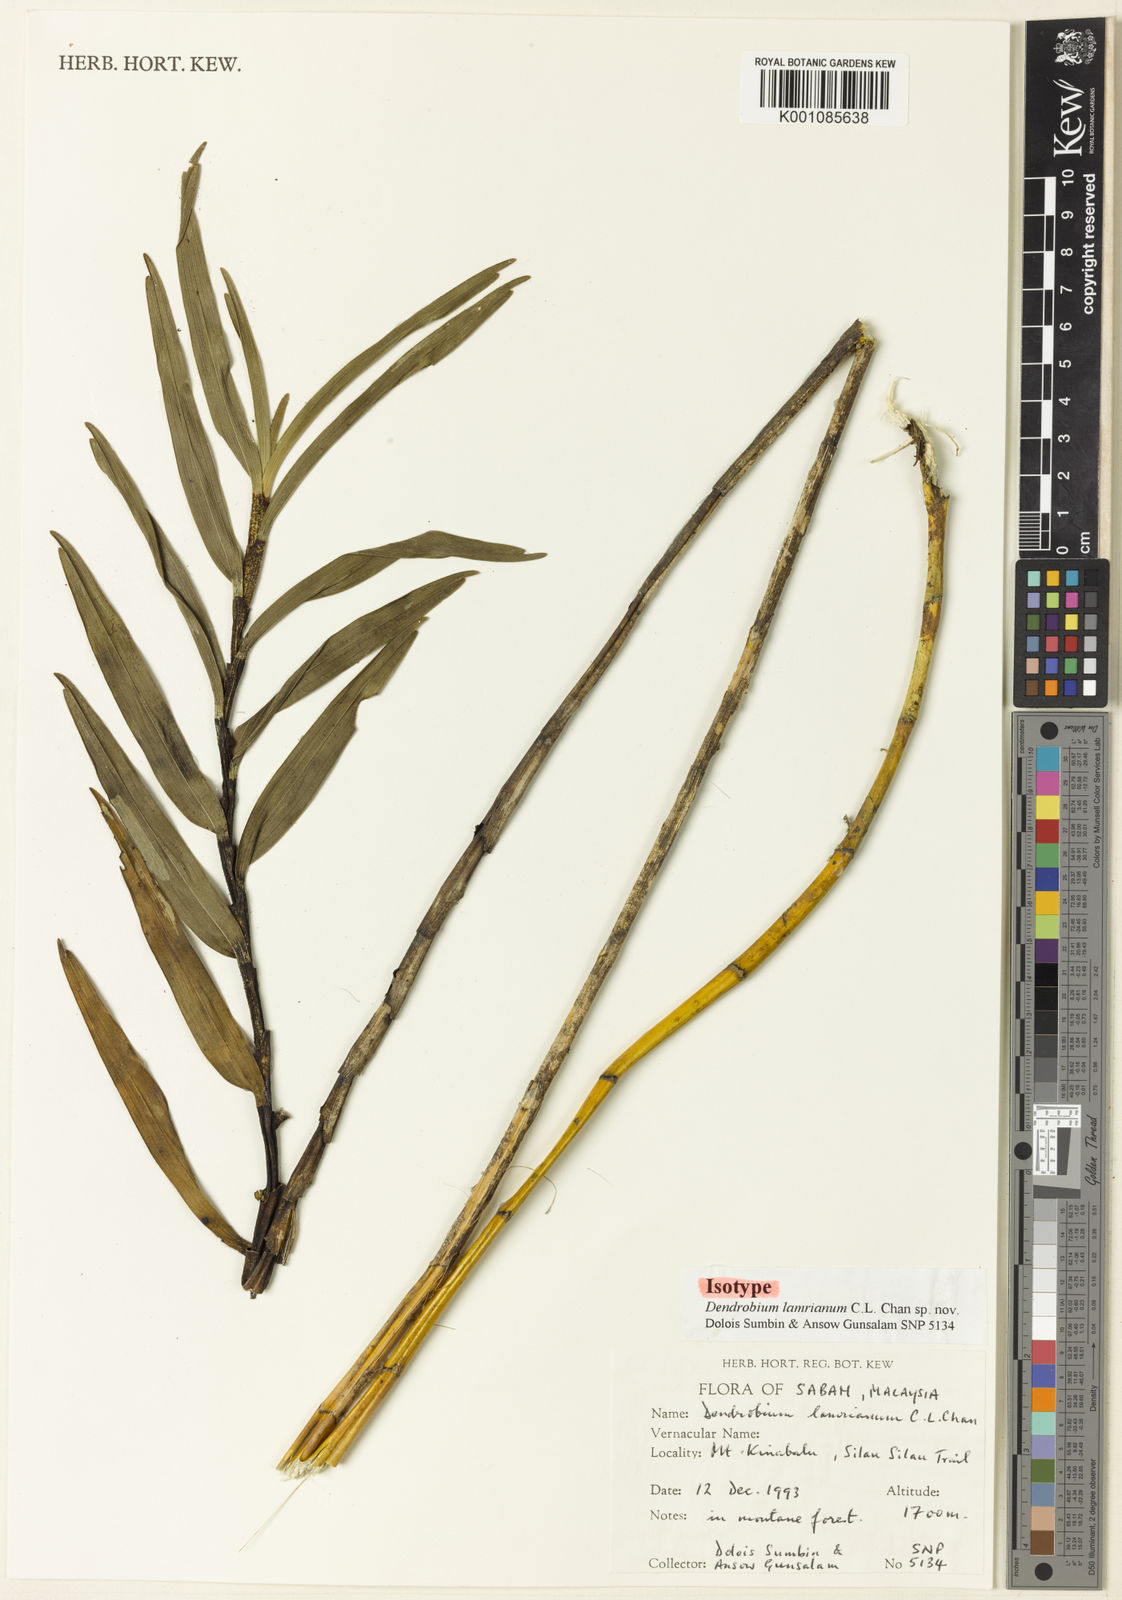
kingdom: Plantae
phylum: Tracheophyta
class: Liliopsida
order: Asparagales
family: Orchidaceae
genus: Dendrobium
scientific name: Dendrobium lamrianum
